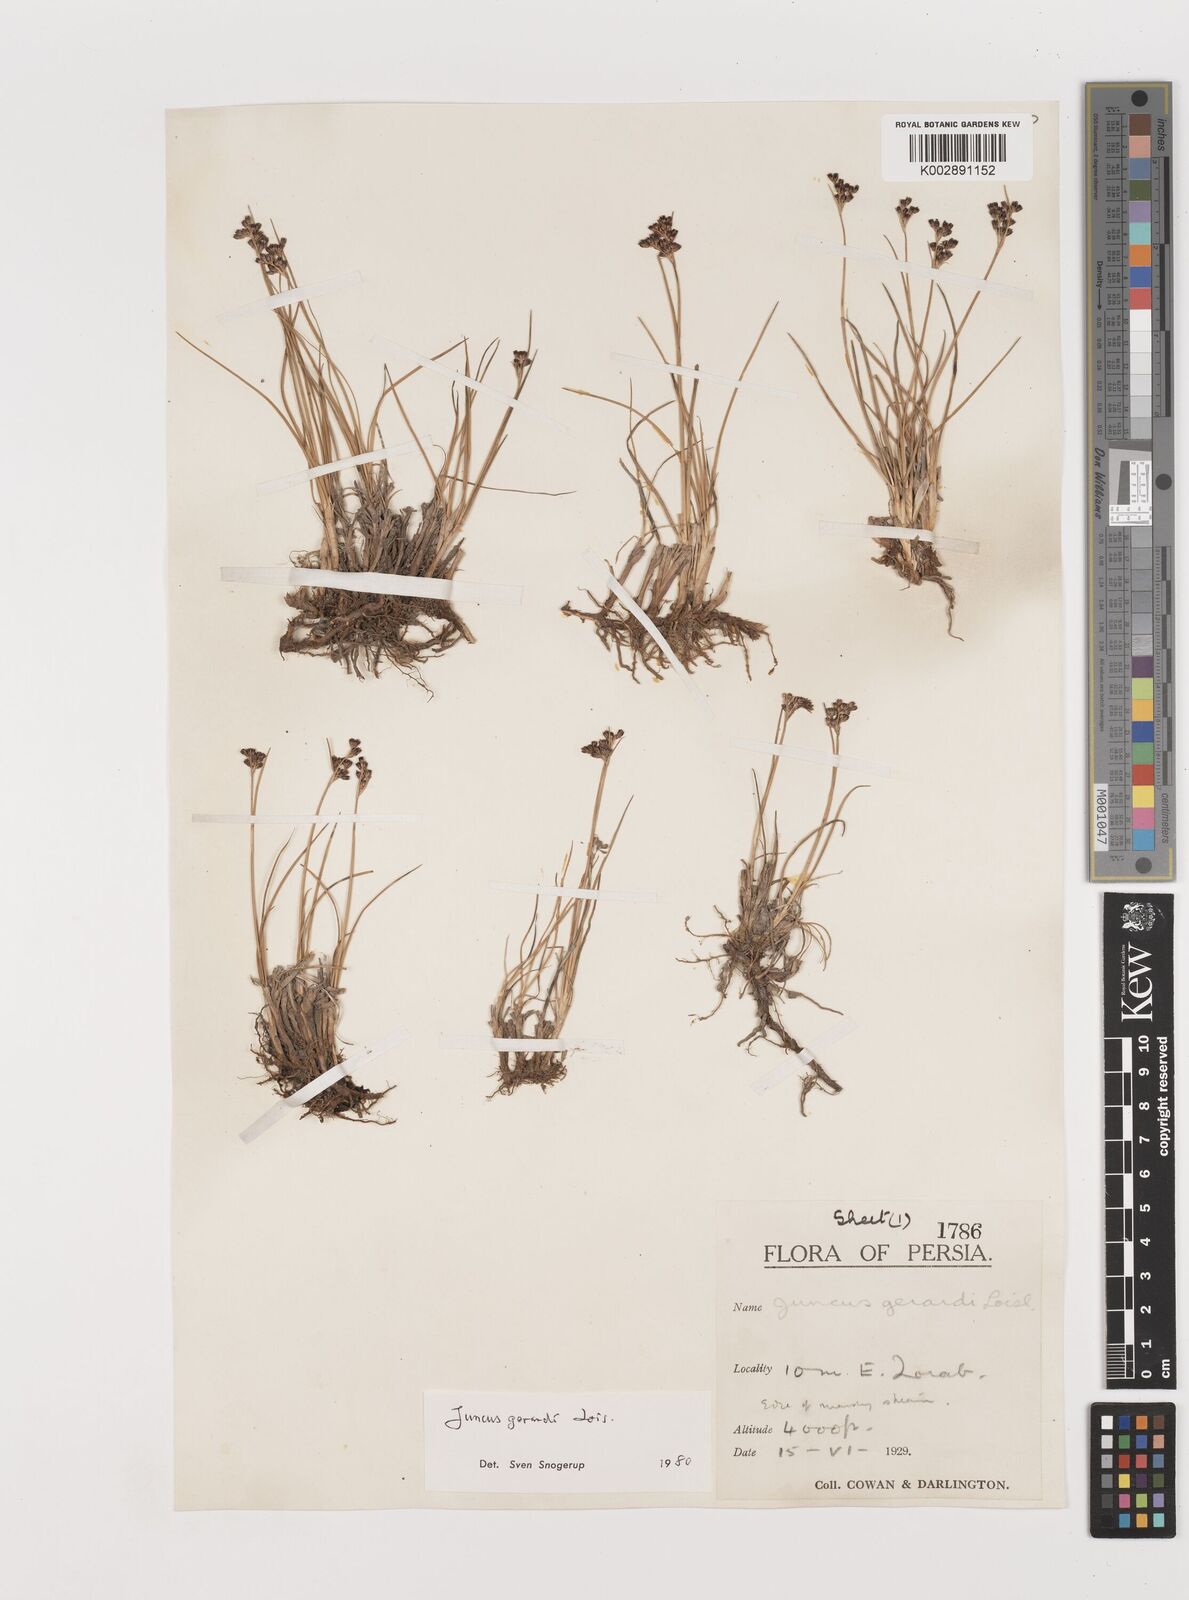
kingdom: Plantae
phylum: Tracheophyta
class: Liliopsida
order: Poales
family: Juncaceae
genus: Juncus
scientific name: Juncus gerardi
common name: Saltmarsh rush
